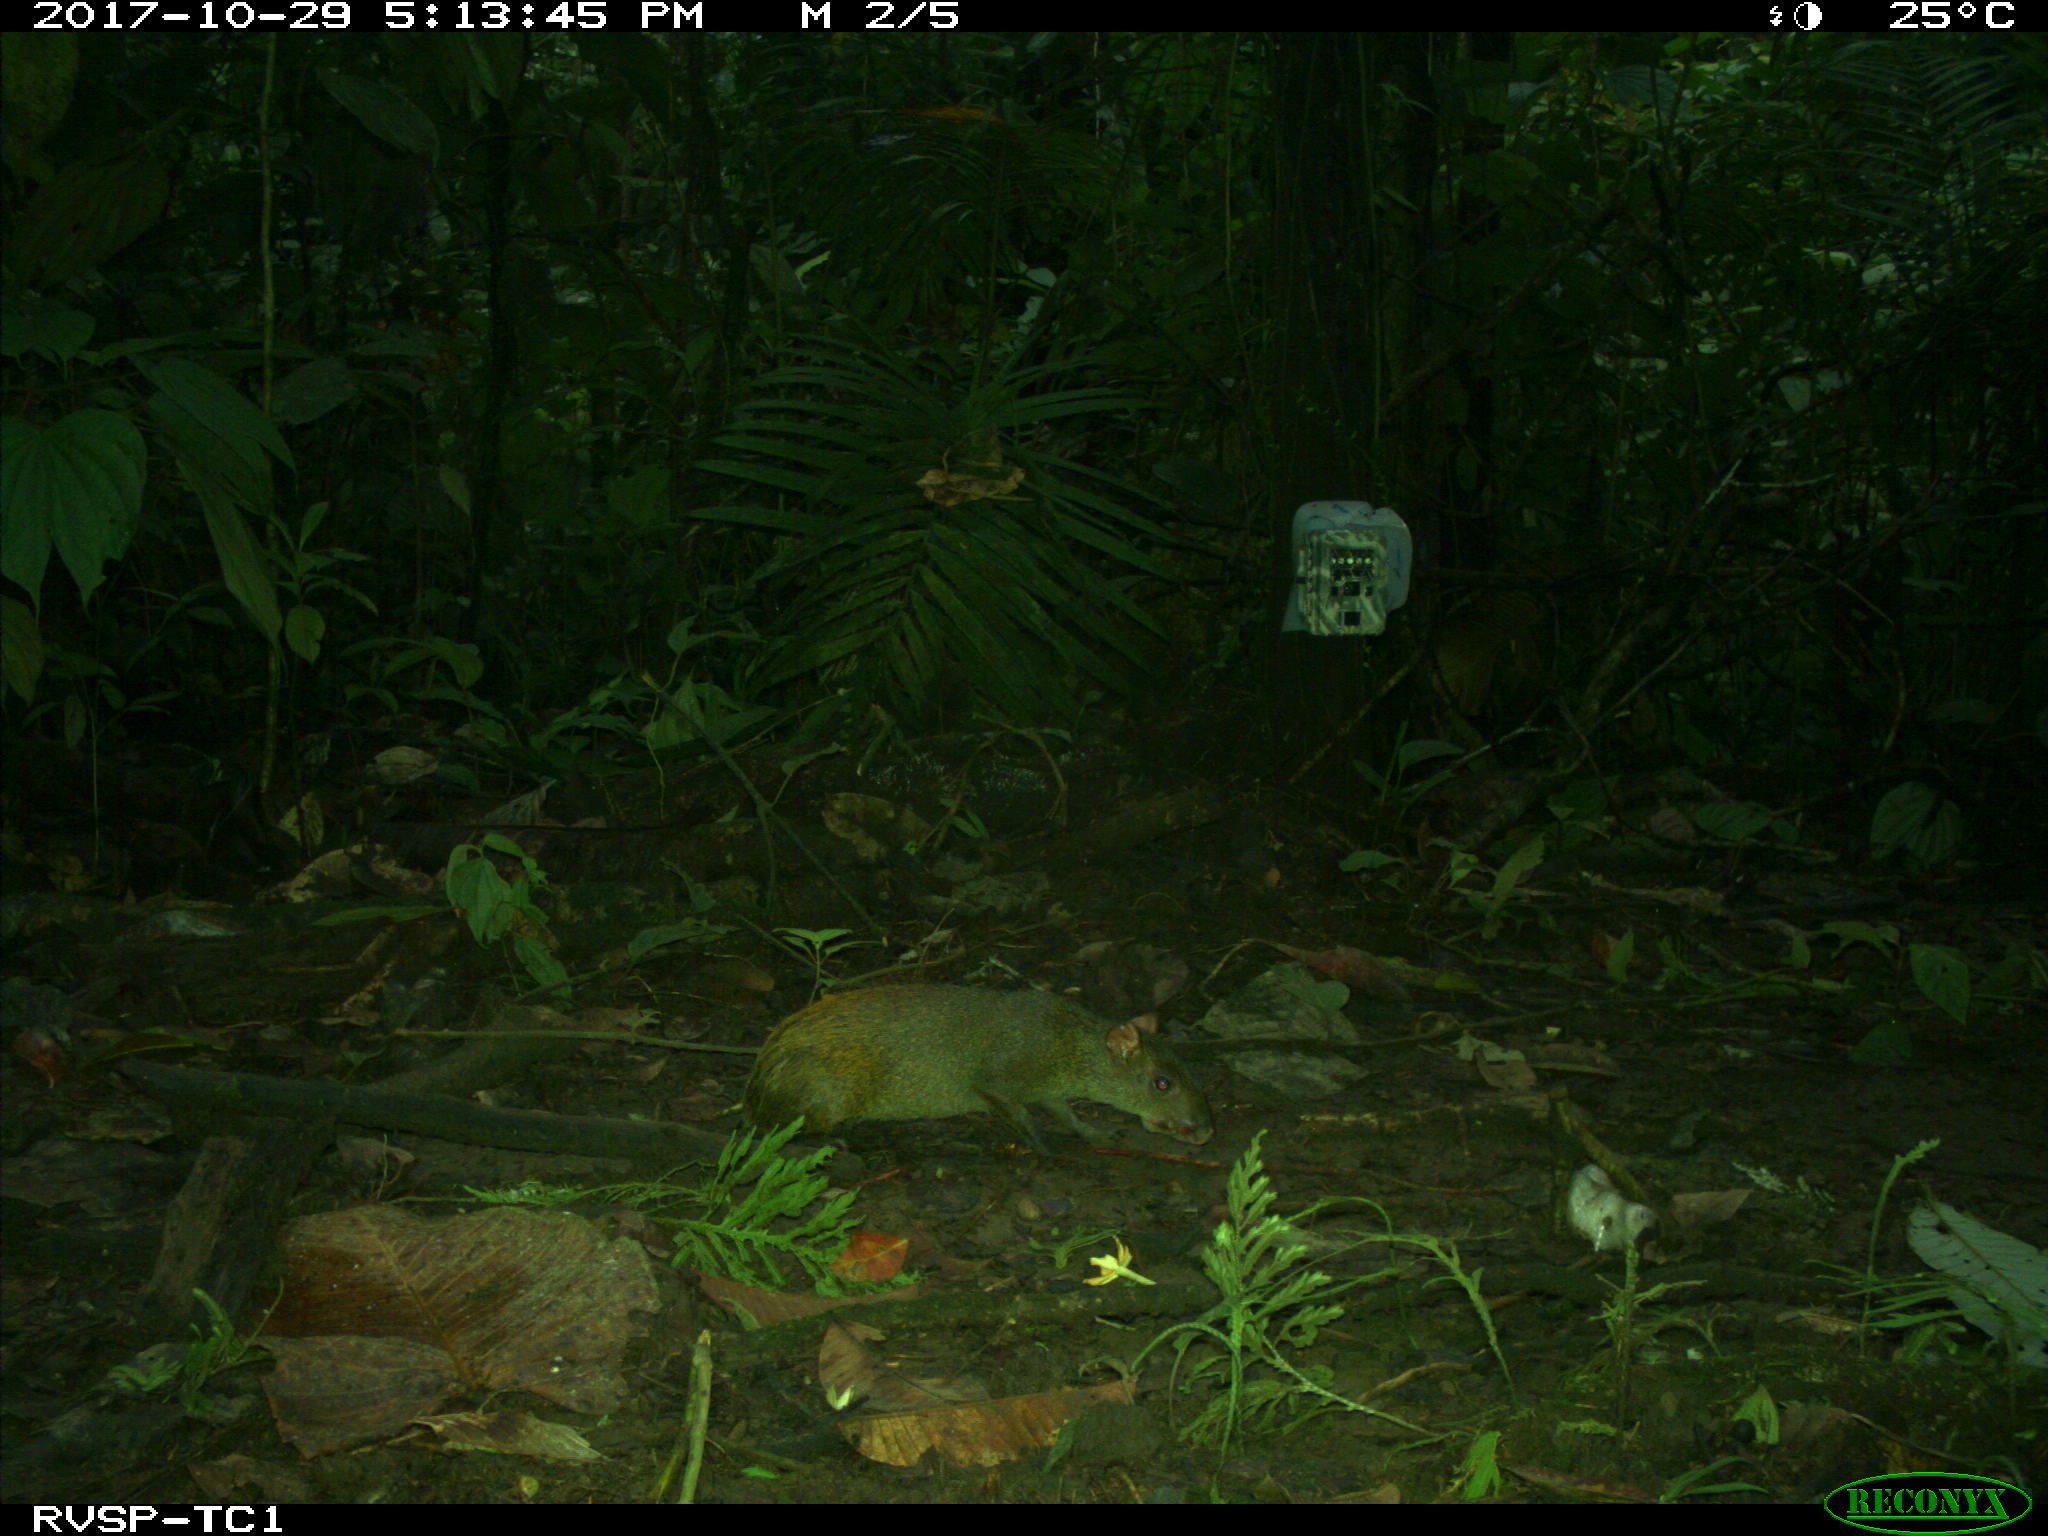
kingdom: Animalia
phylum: Chordata
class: Mammalia
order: Rodentia
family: Dasyproctidae
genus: Dasyprocta
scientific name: Dasyprocta punctata
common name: Central american agouti
